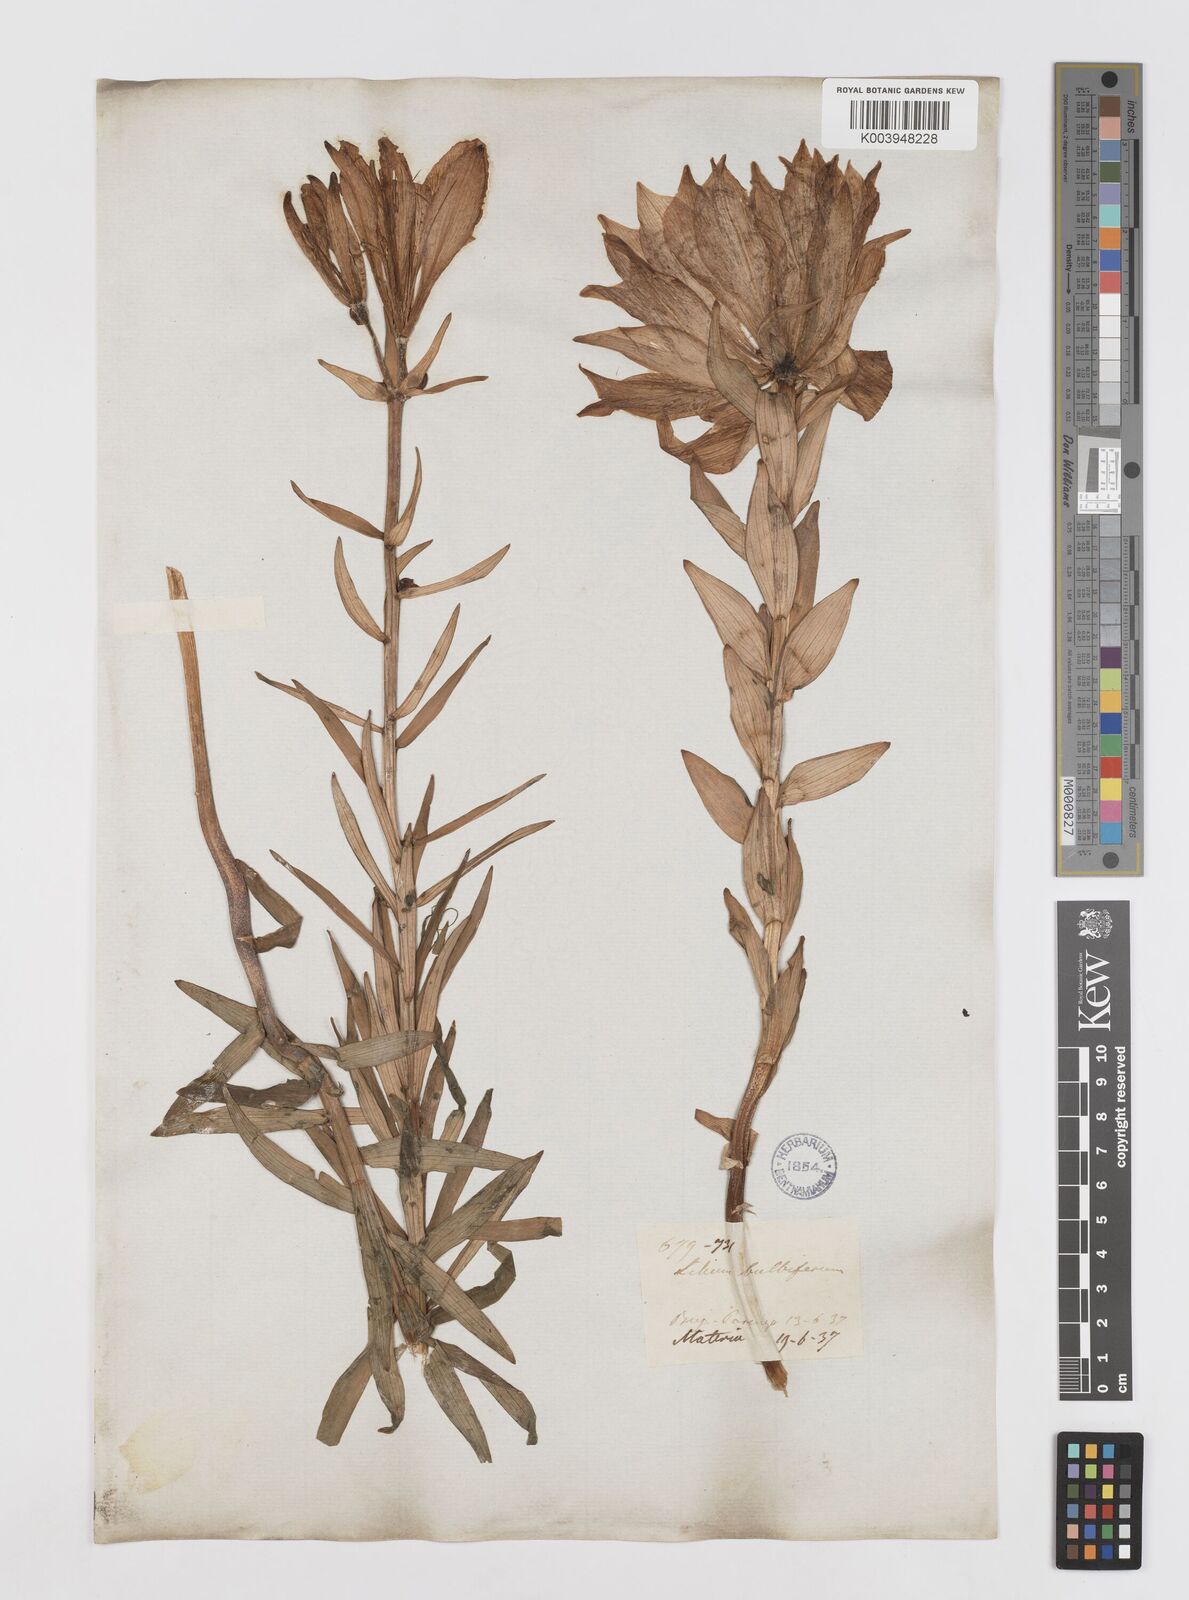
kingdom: Plantae
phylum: Tracheophyta
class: Liliopsida
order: Liliales
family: Liliaceae
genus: Lilium
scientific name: Lilium bulbiferum
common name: Orange lily
